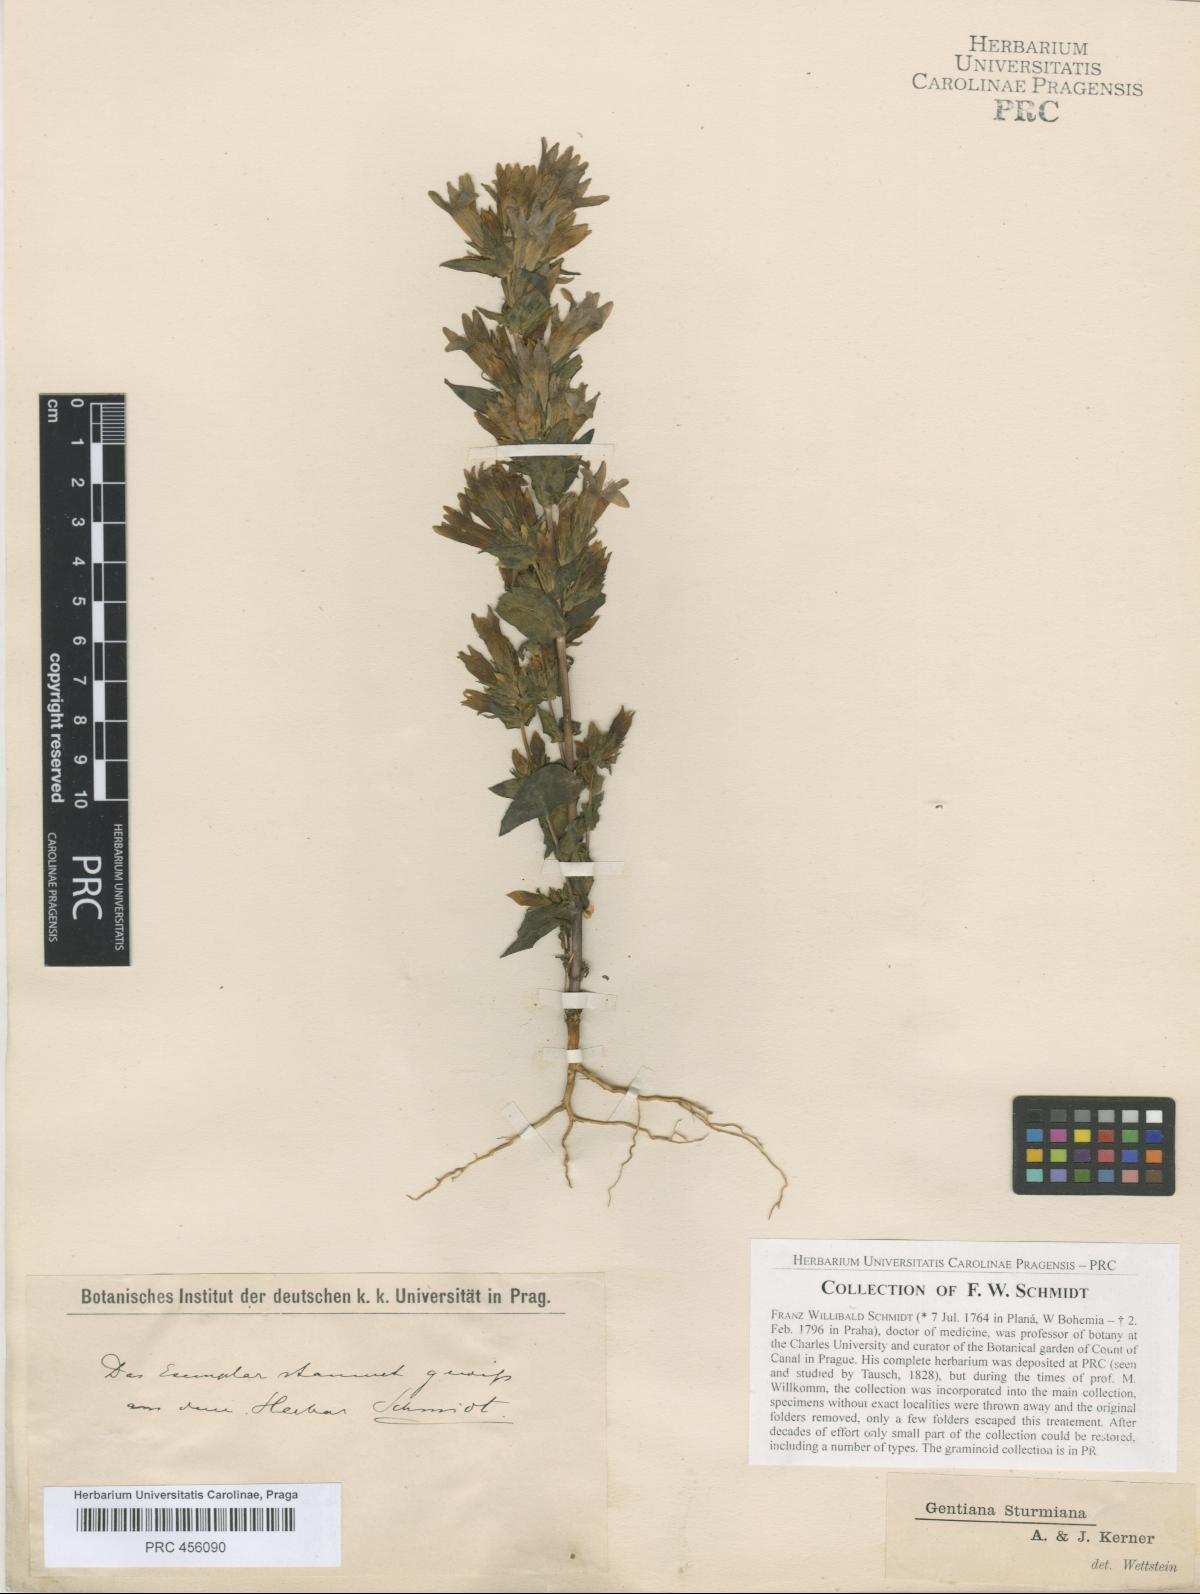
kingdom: Plantae
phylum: Tracheophyta
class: Magnoliopsida
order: Gentianales
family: Gentianaceae
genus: Gentianella
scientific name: Gentianella obtusifolia
